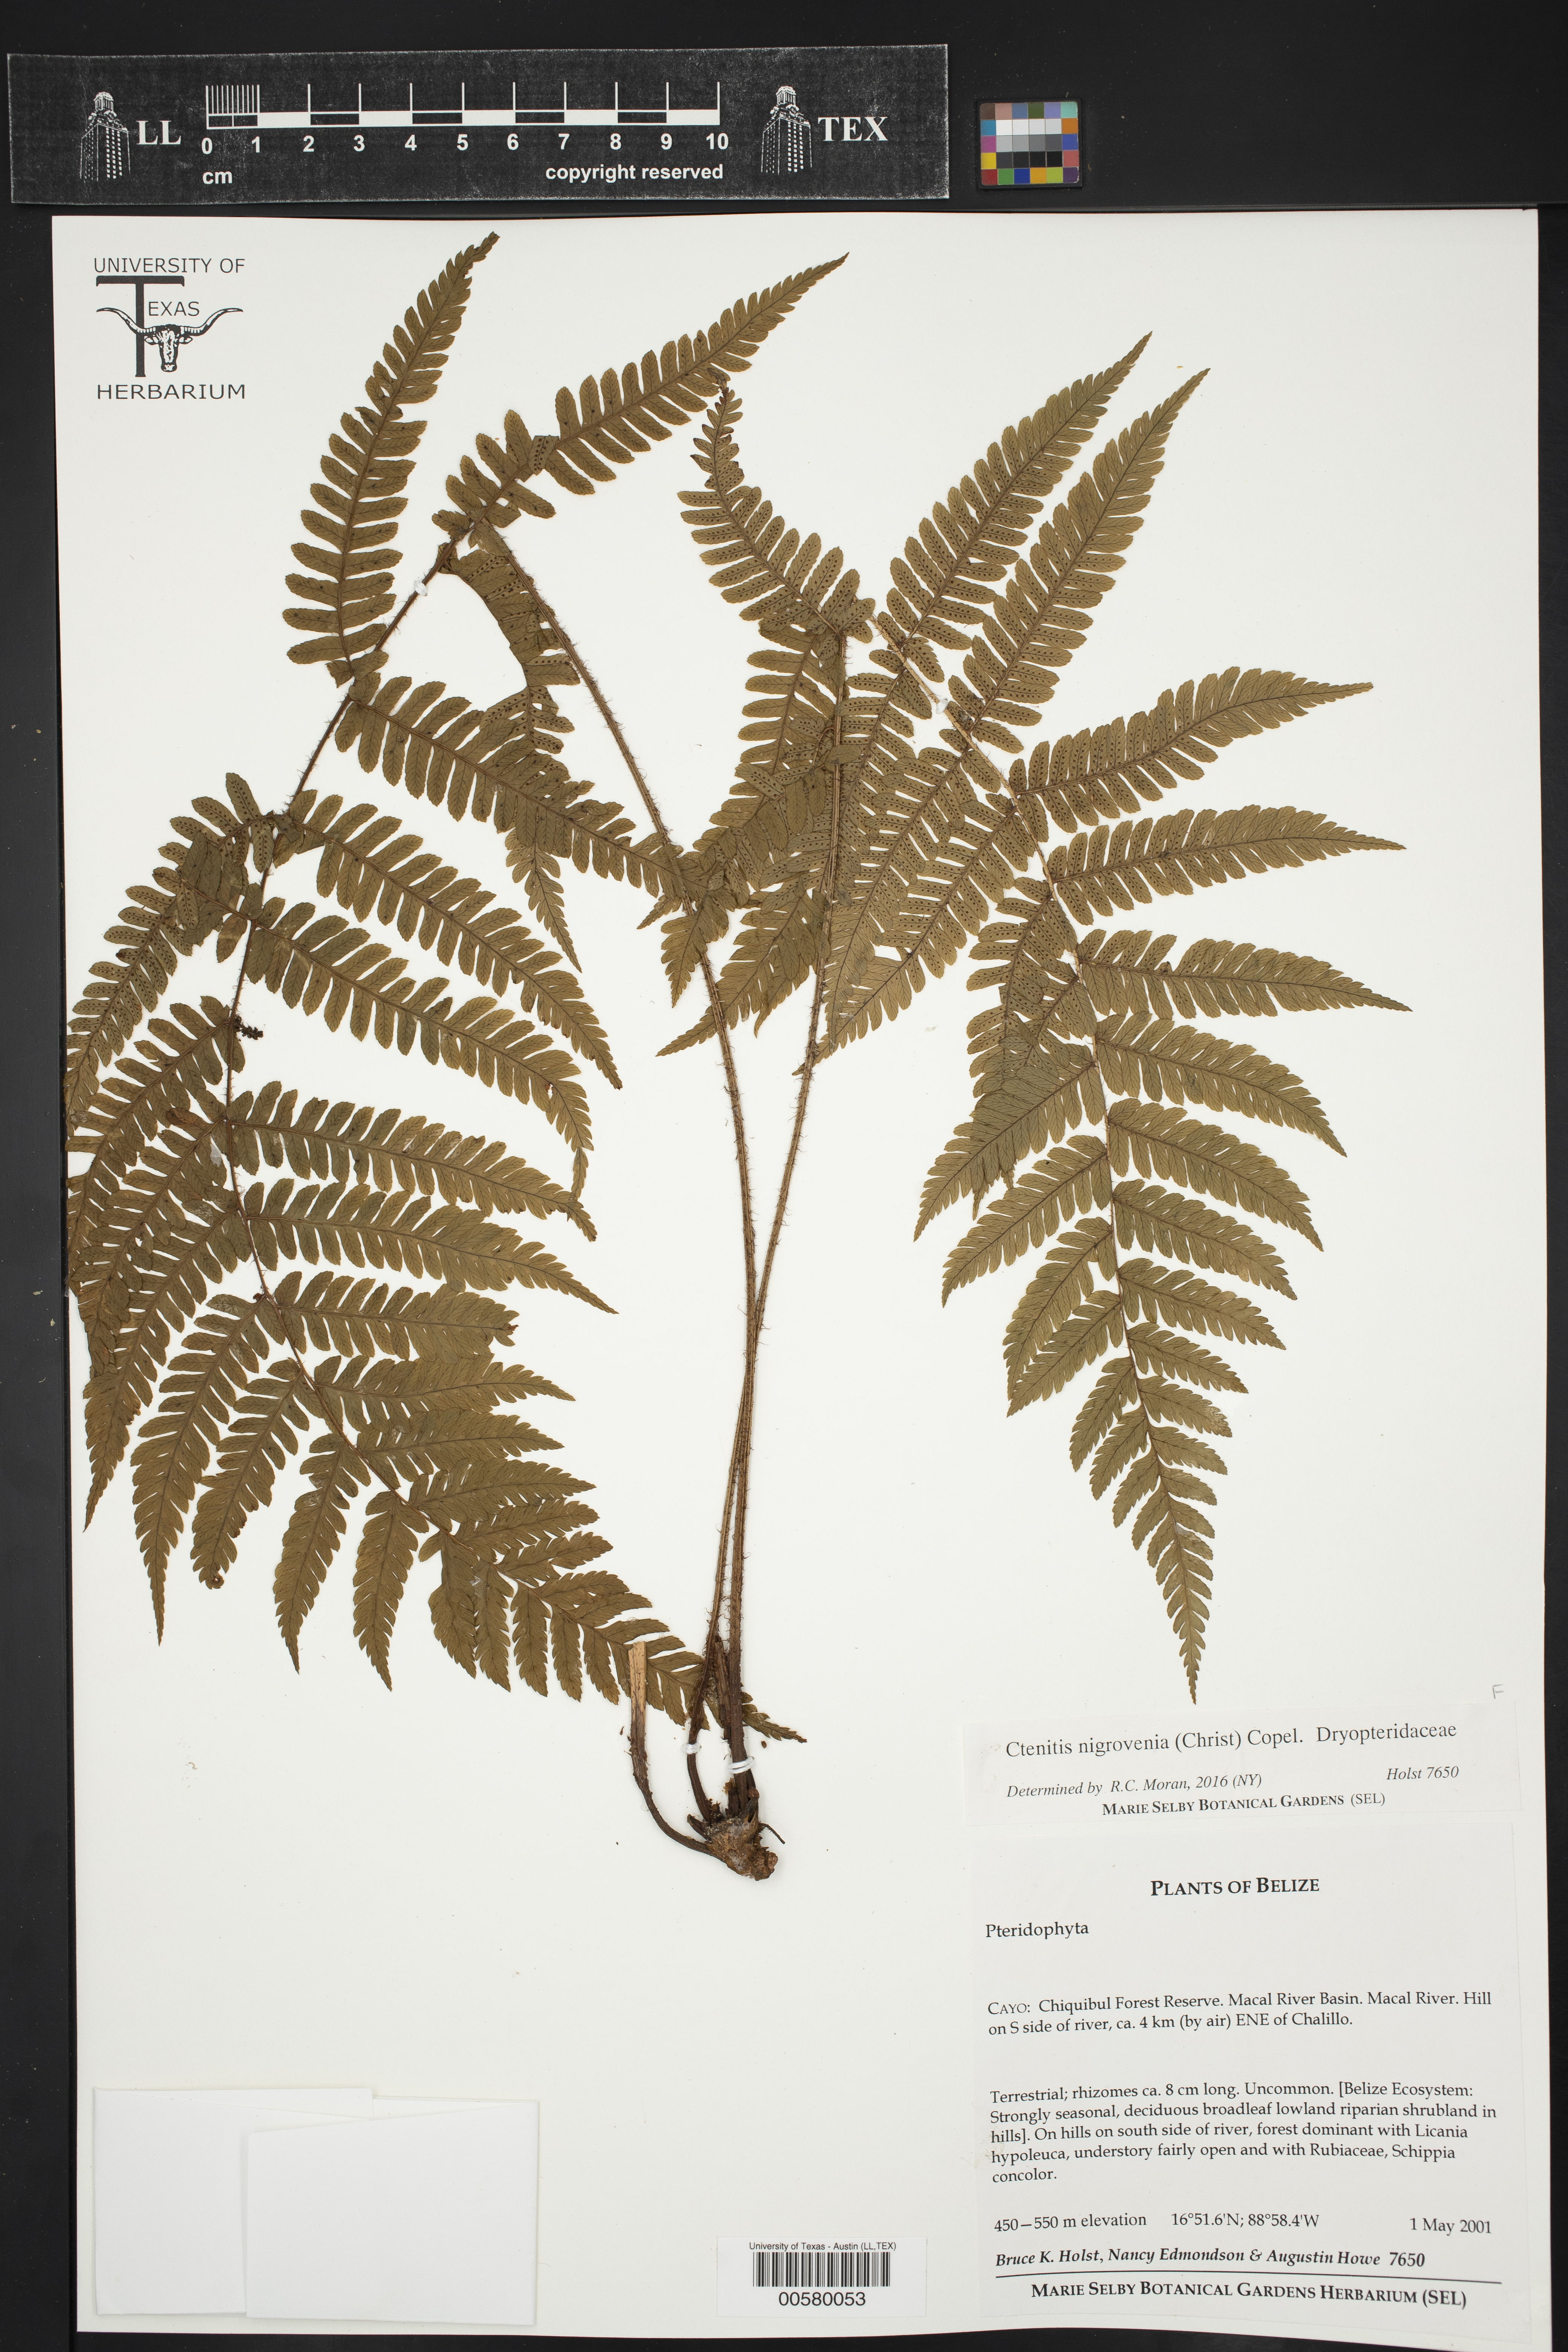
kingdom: Plantae
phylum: Tracheophyta
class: Polypodiopsida
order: Polypodiales
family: Dryopteridaceae
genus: Ctenitis
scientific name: Ctenitis nigrovenia
